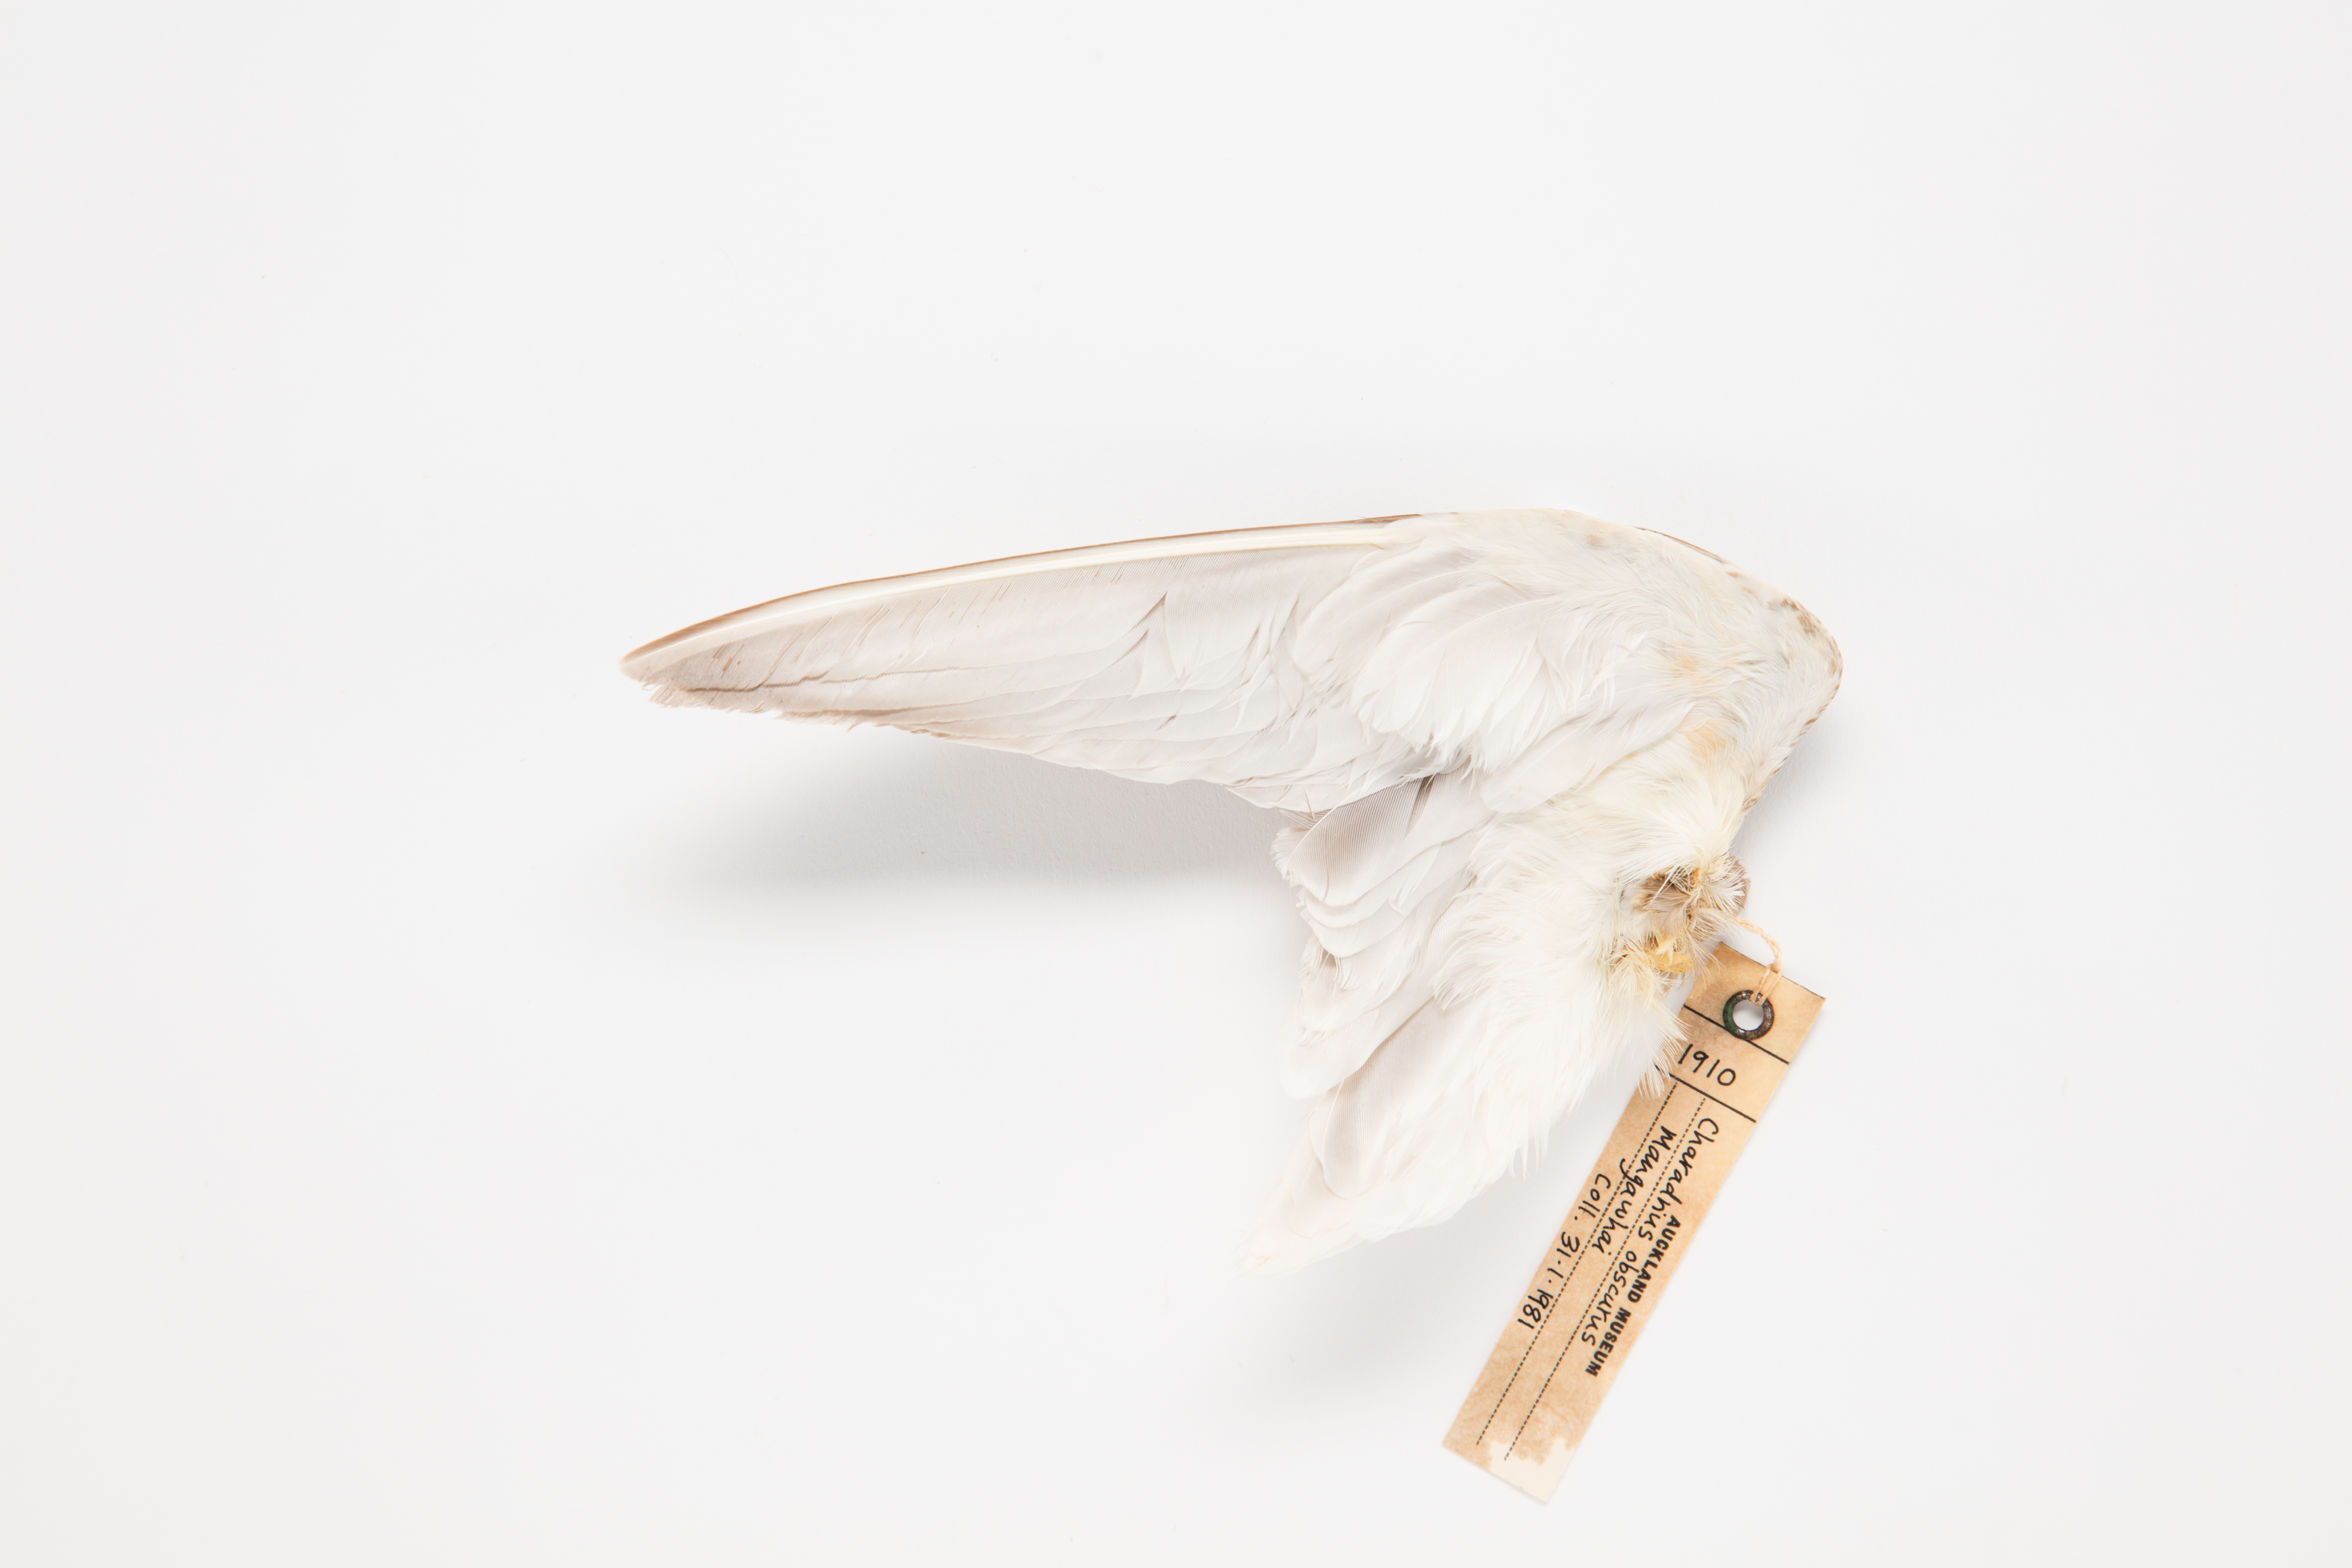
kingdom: Animalia
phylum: Chordata
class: Aves
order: Charadriiformes
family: Charadriidae
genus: Charadrius
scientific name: Charadrius obscurus
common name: New zealand plover
